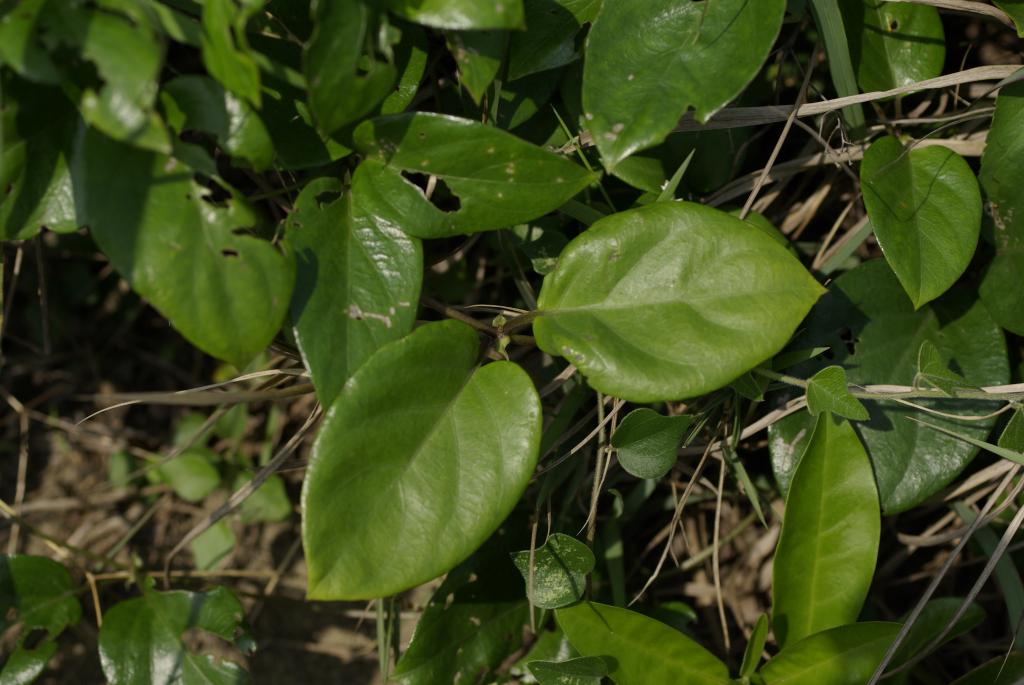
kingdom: Plantae
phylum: Tracheophyta
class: Magnoliopsida
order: Gentianales
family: Rubiaceae
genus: Paederia
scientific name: Paederia foetida
